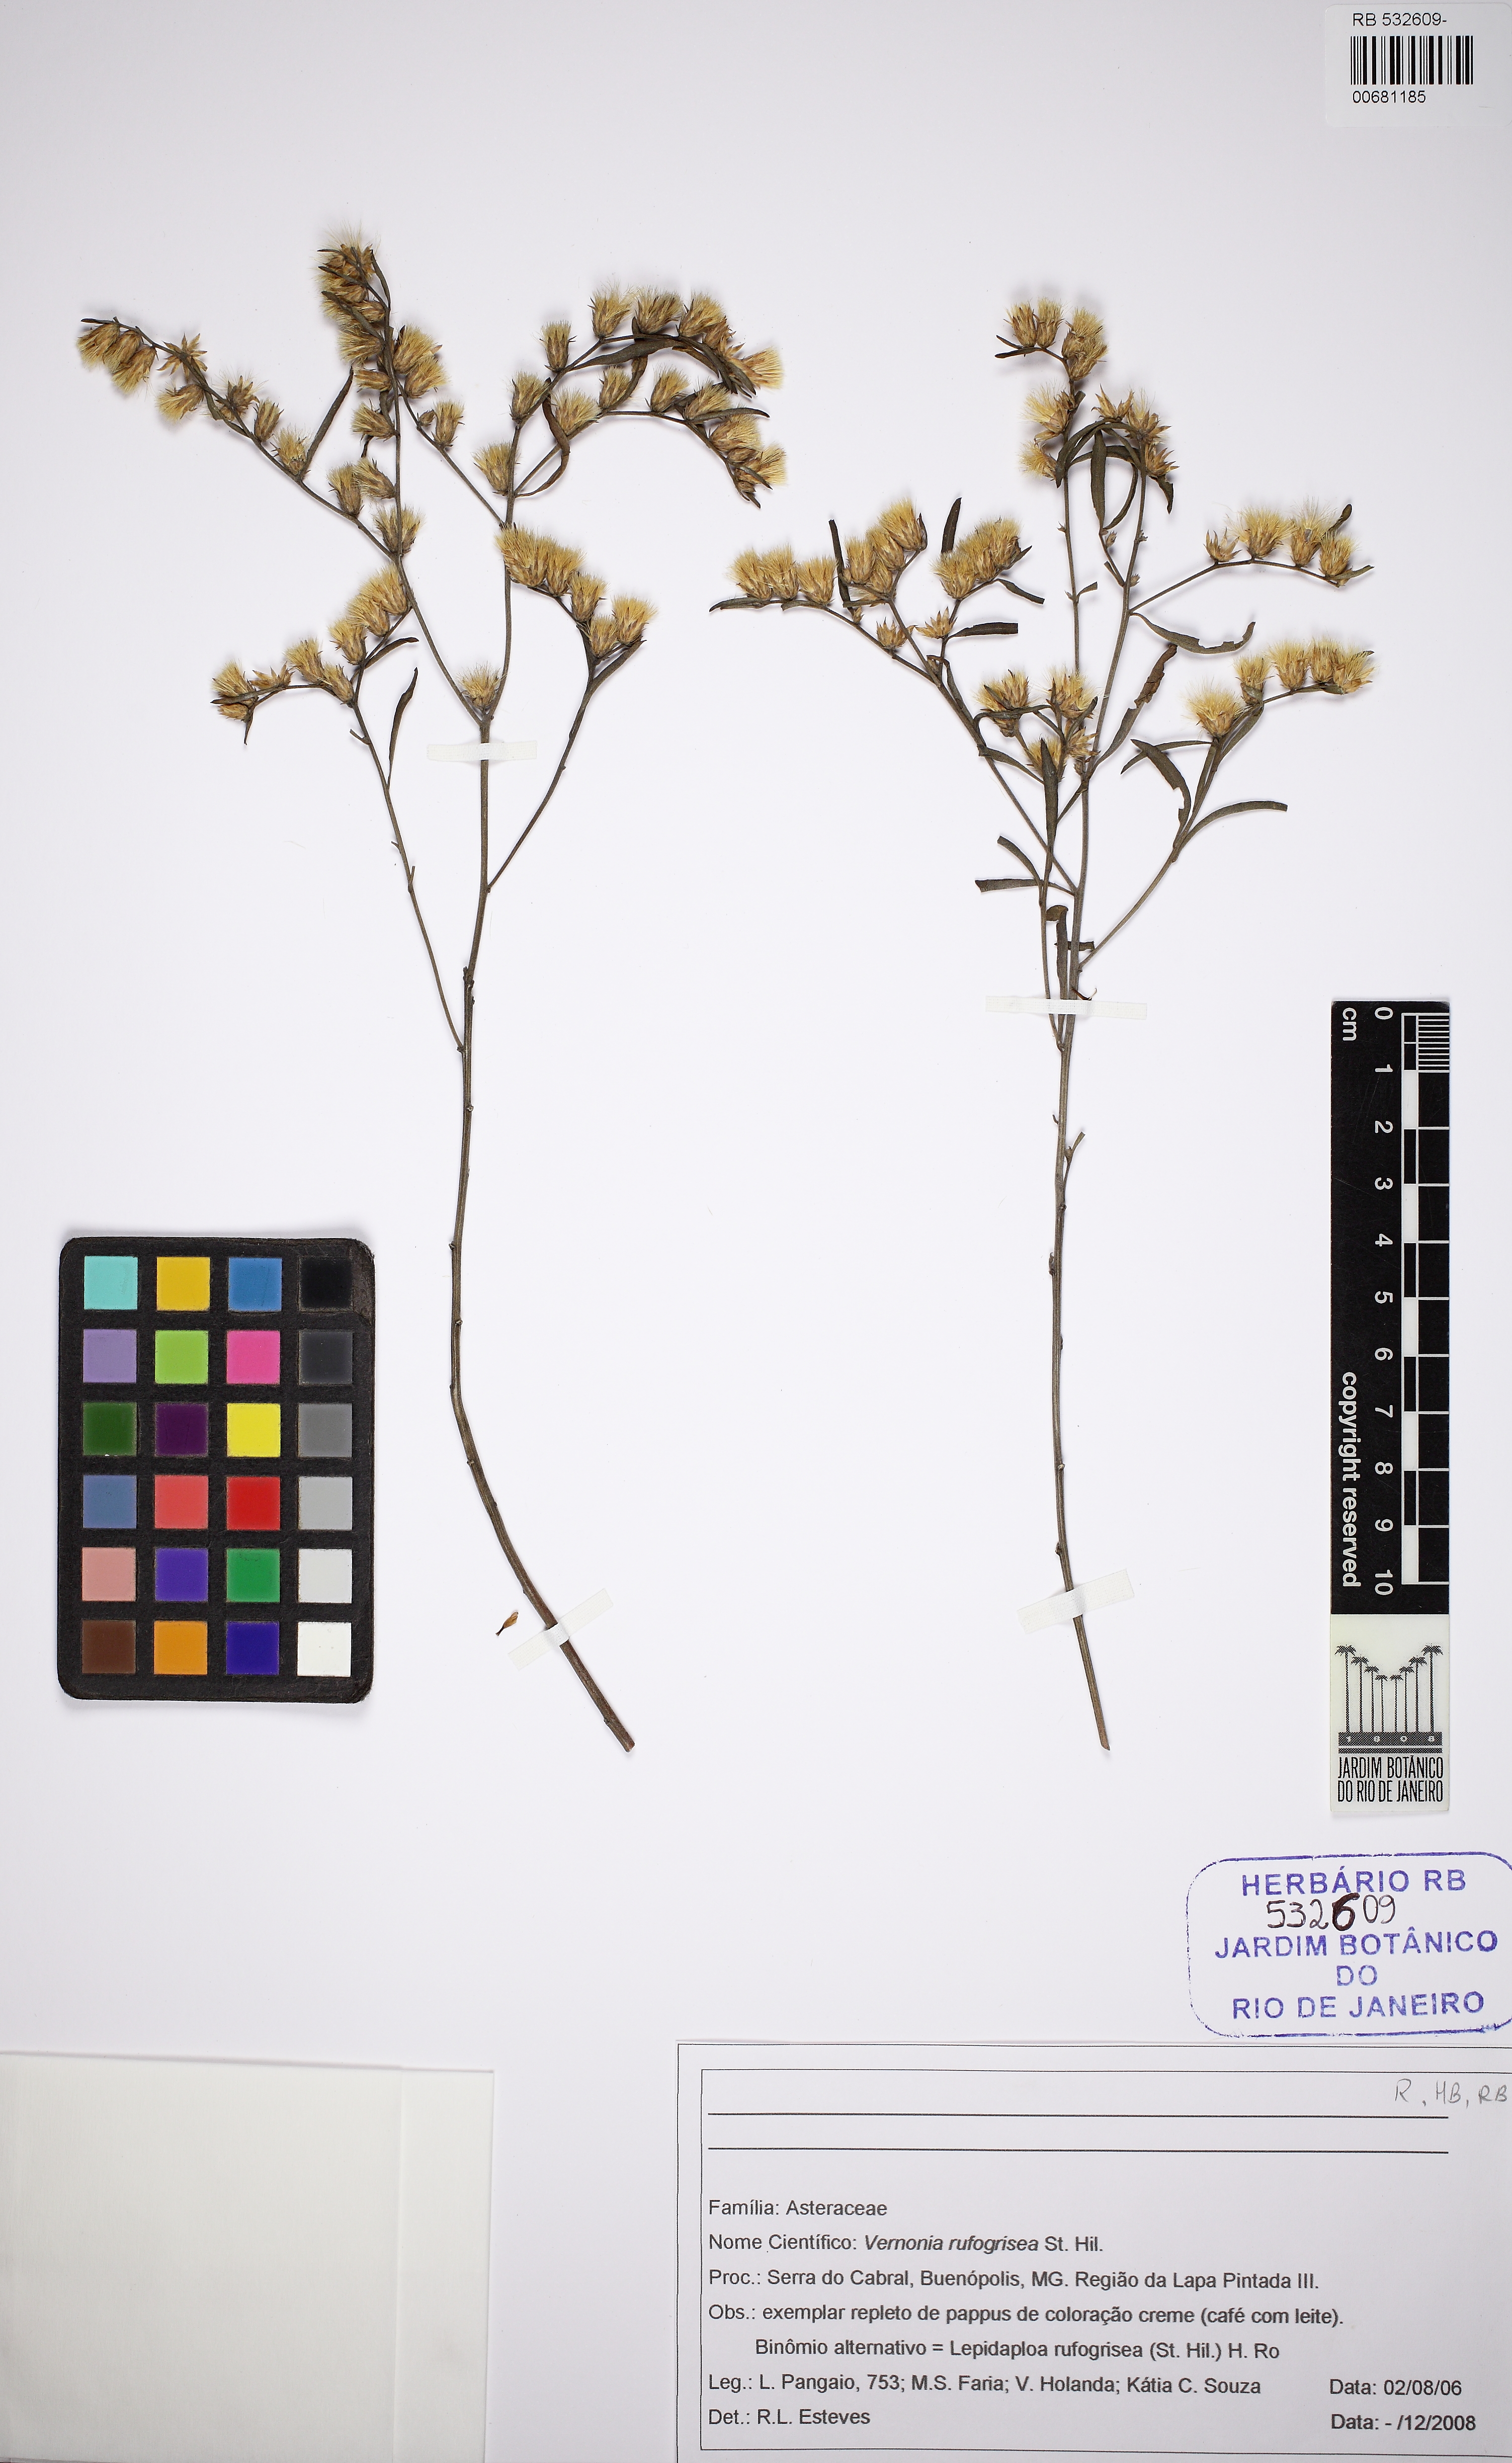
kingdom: Plantae
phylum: Tracheophyta
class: Magnoliopsida
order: Asterales
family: Asteraceae
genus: Lepidaploa
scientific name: Lepidaploa rufogrisea
